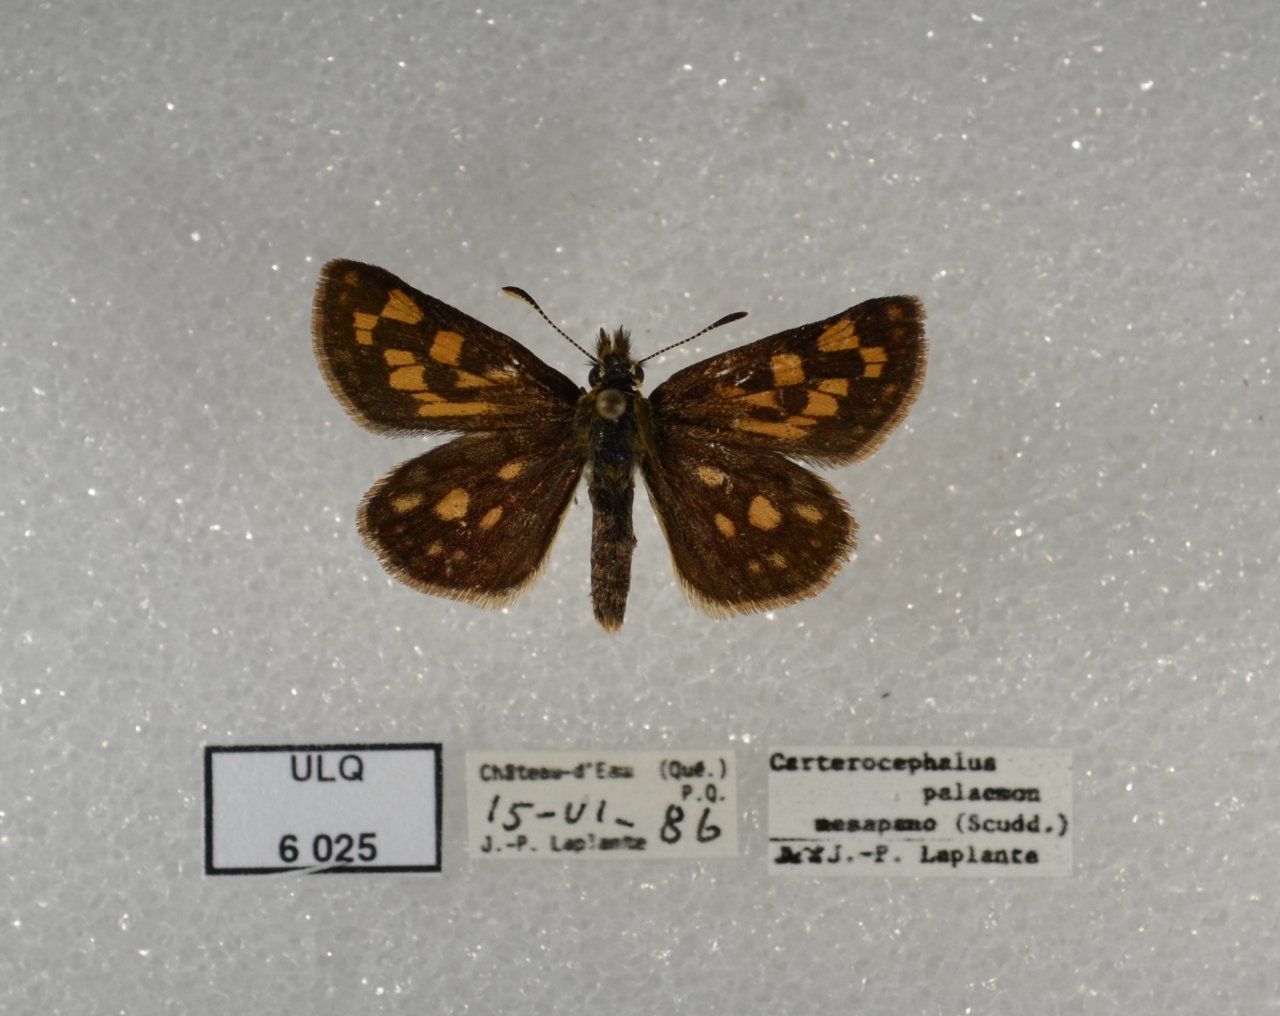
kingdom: Animalia
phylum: Arthropoda
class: Insecta
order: Lepidoptera
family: Hesperiidae
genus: Carterocephalus
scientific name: Carterocephalus palaemon
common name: Chequered Skipper
